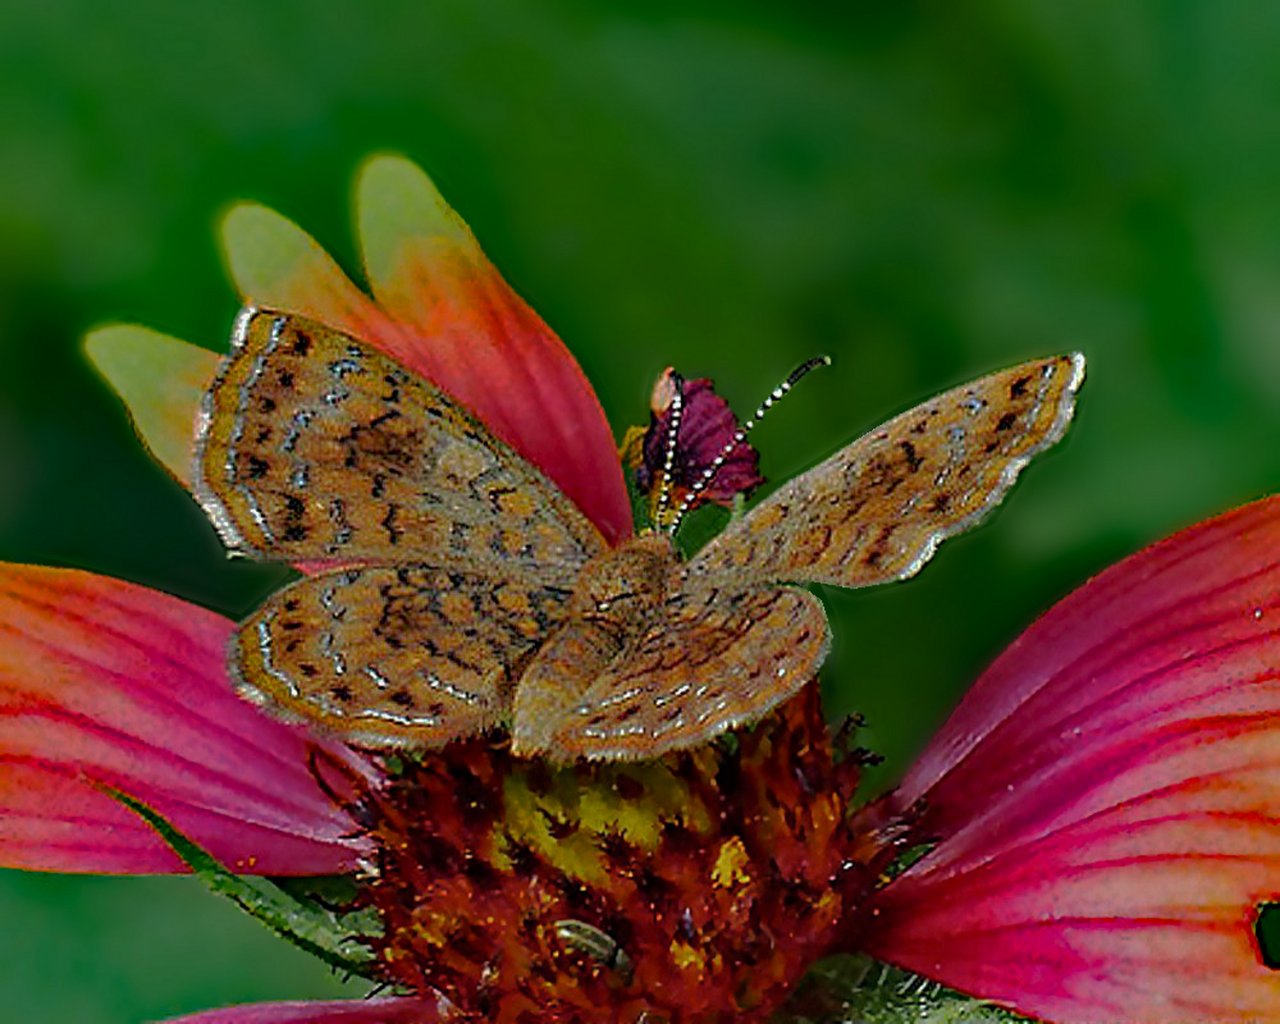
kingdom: Animalia
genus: Calephelis
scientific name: Calephelis nemesis
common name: Fatal Metalmark
